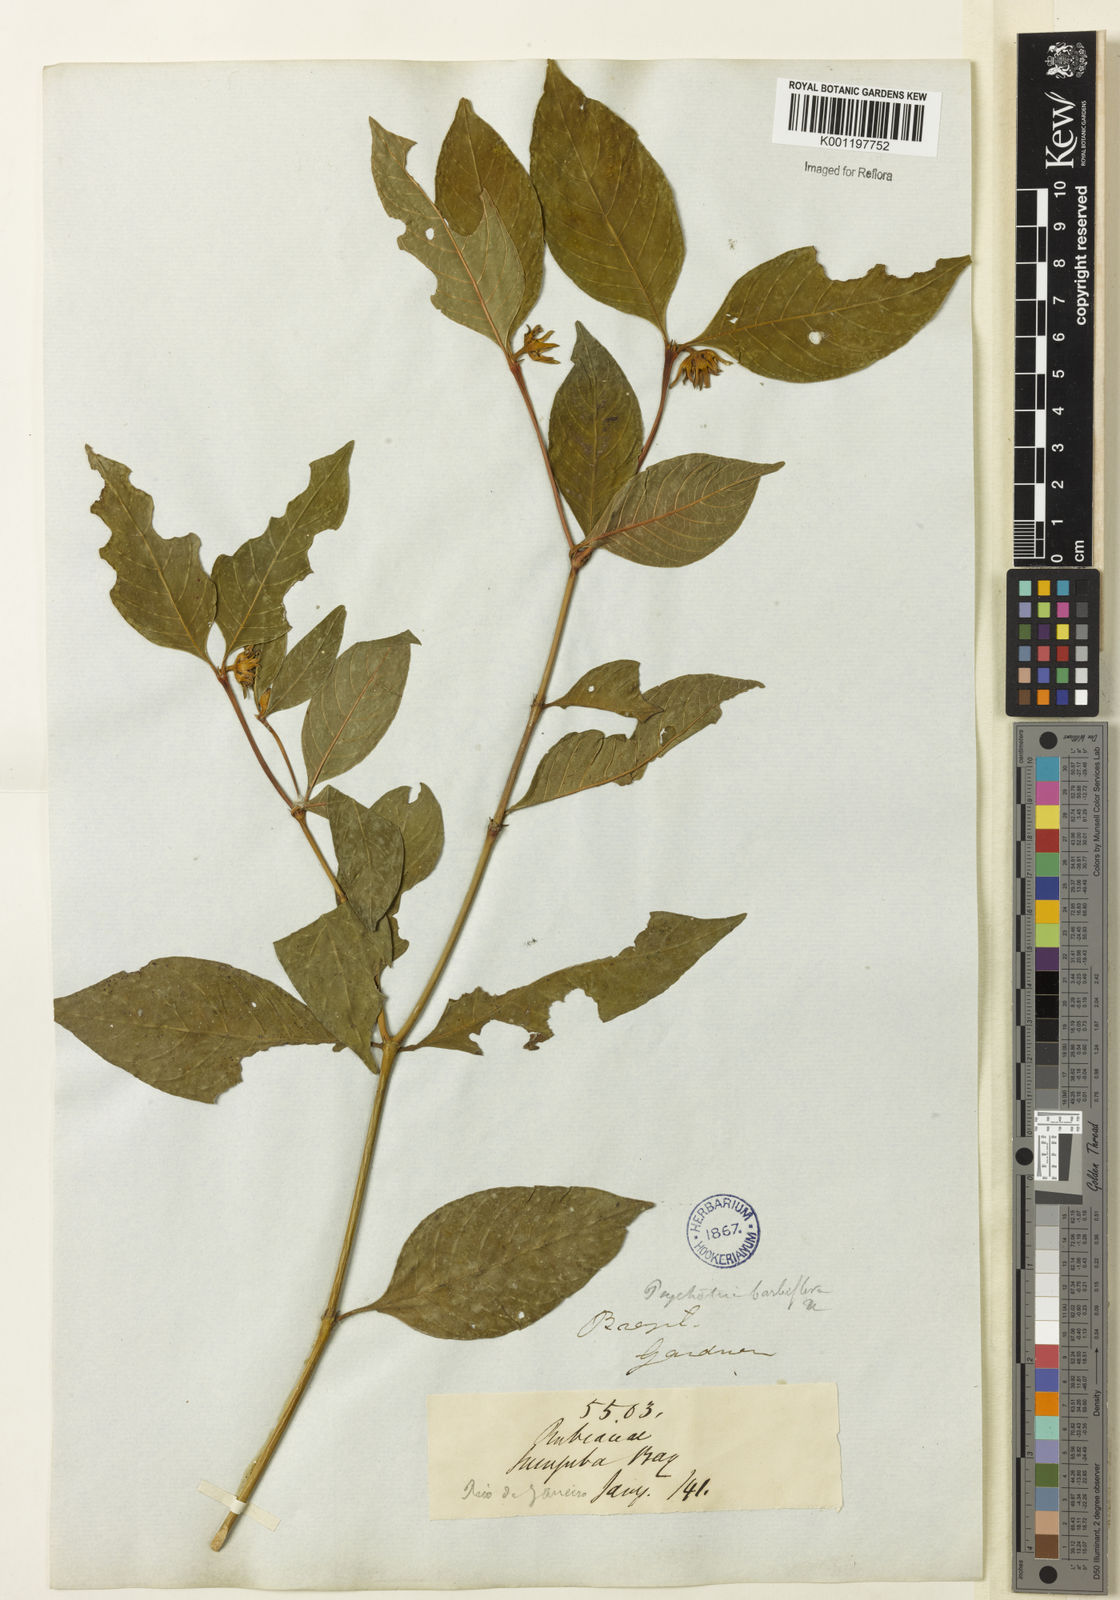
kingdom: Plantae
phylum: Tracheophyta
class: Magnoliopsida
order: Gentianales
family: Rubiaceae
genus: Palicourea
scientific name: Palicourea hoffmannseggiana
